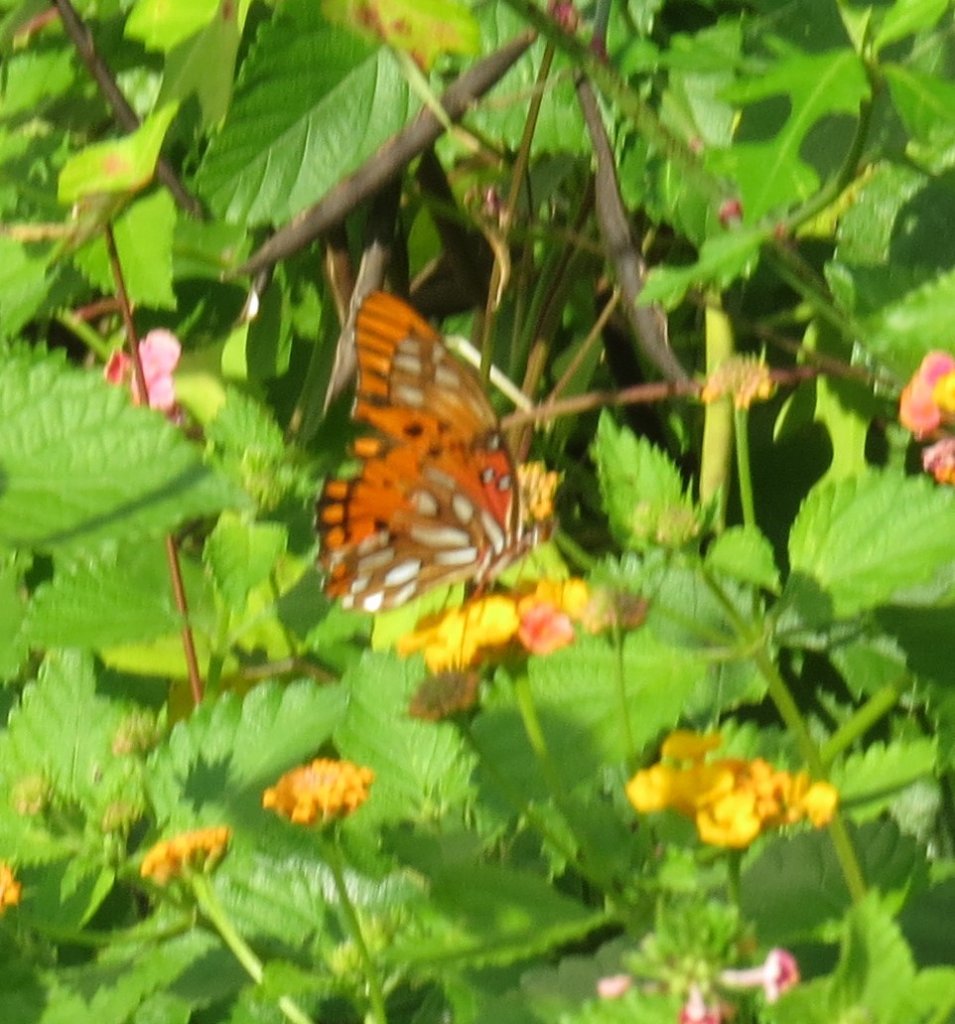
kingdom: Animalia
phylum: Arthropoda
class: Insecta
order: Lepidoptera
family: Nymphalidae
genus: Dione
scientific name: Dione vanillae
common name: Gulf Fritillary
